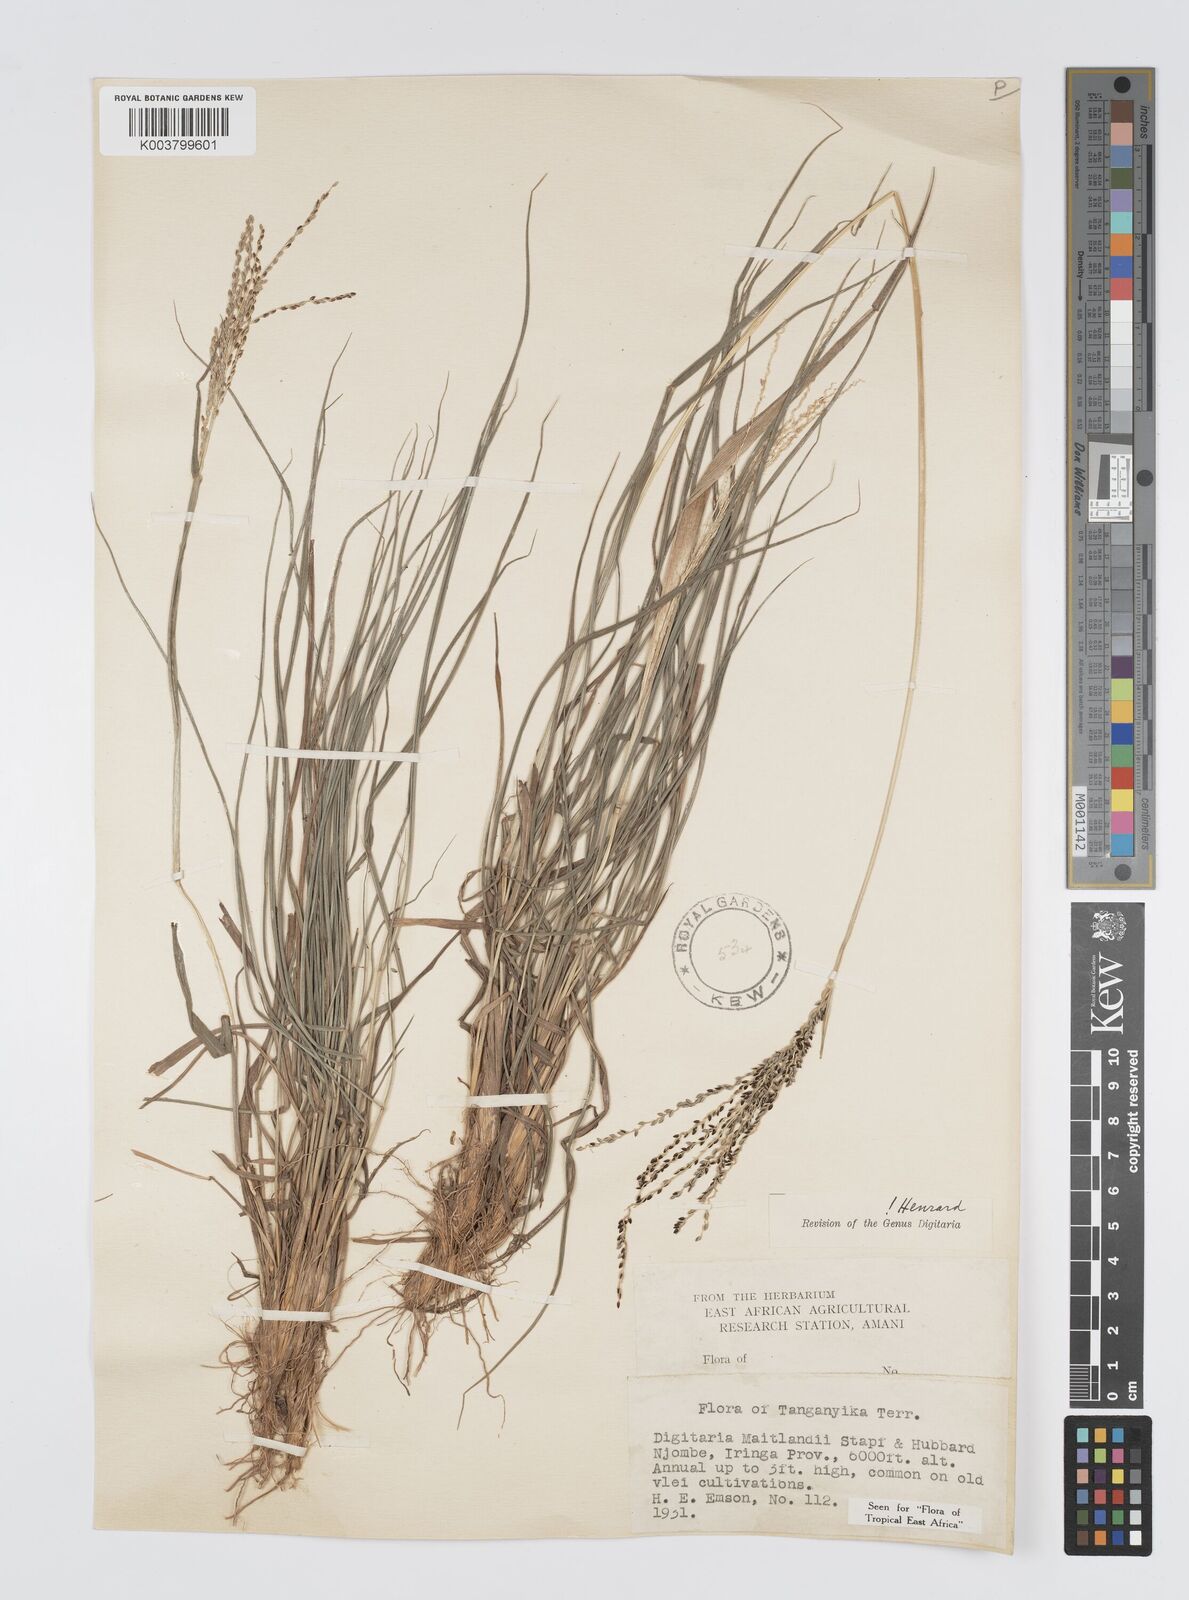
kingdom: Plantae
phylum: Tracheophyta
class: Liliopsida
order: Poales
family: Poaceae
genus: Digitaria
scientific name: Digitaria maitlandii
